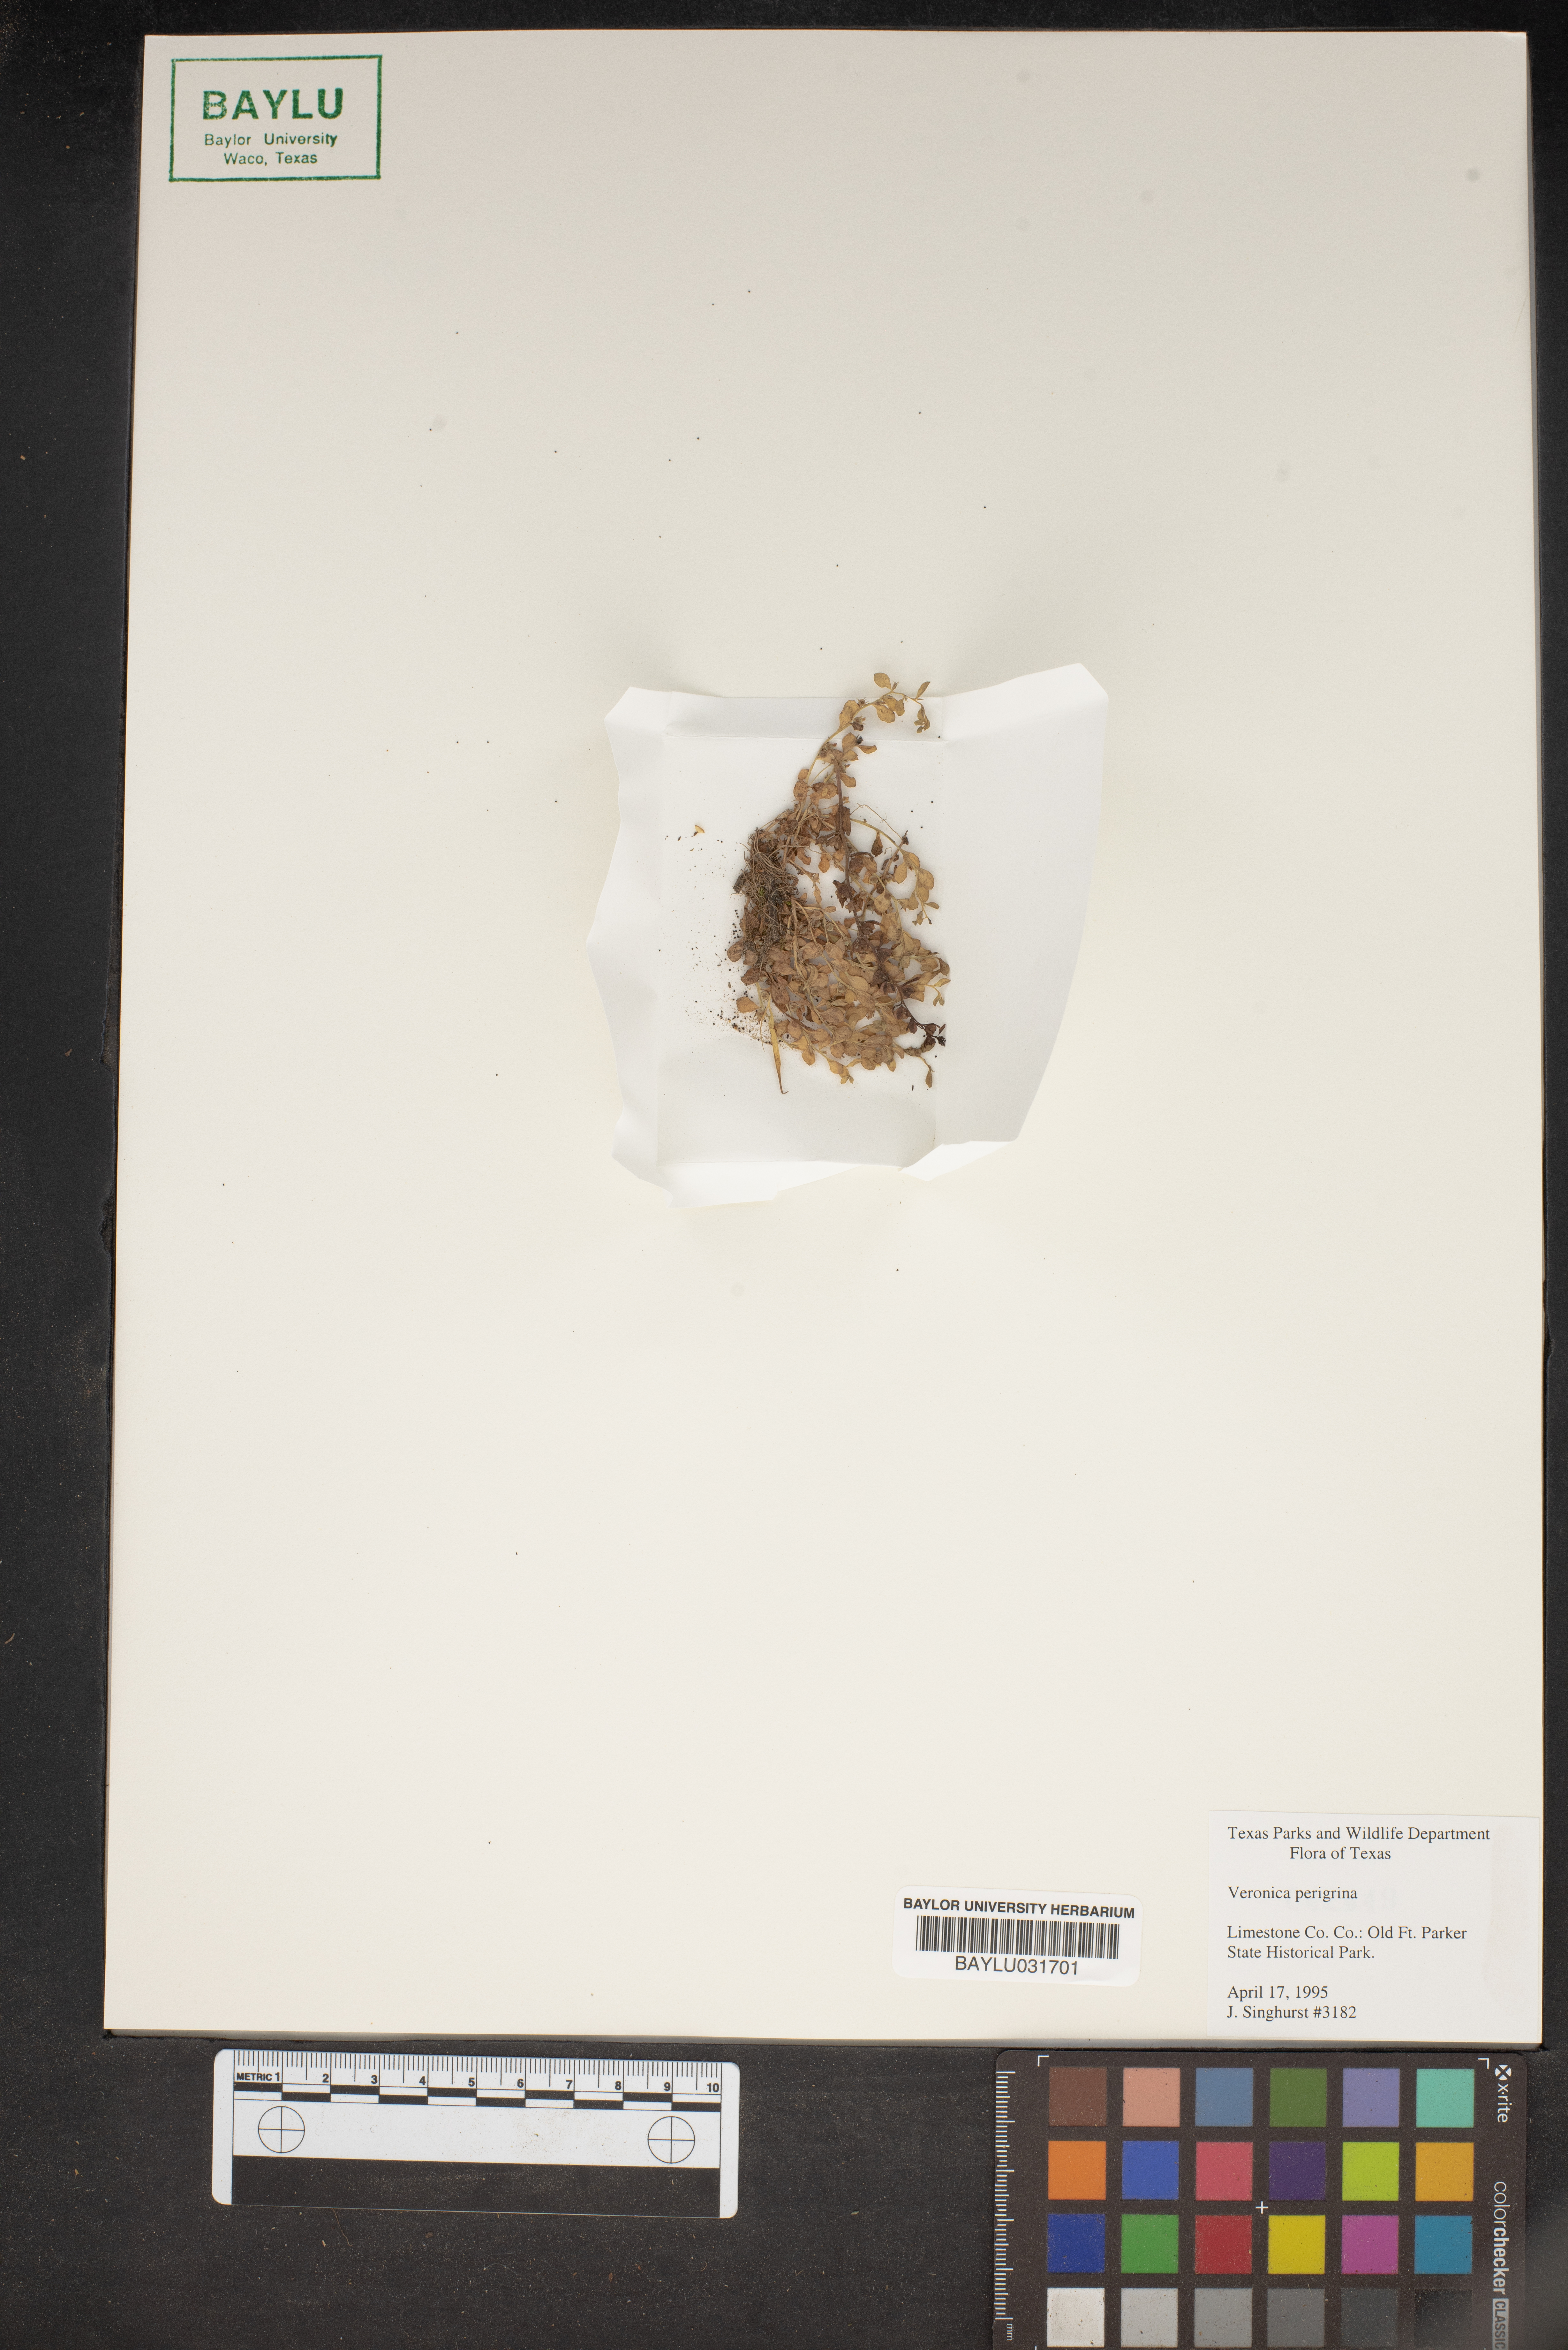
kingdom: Plantae
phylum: Tracheophyta
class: Magnoliopsida
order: Lamiales
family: Plantaginaceae
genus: Veronica
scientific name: Veronica peregrina
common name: Neckweed
